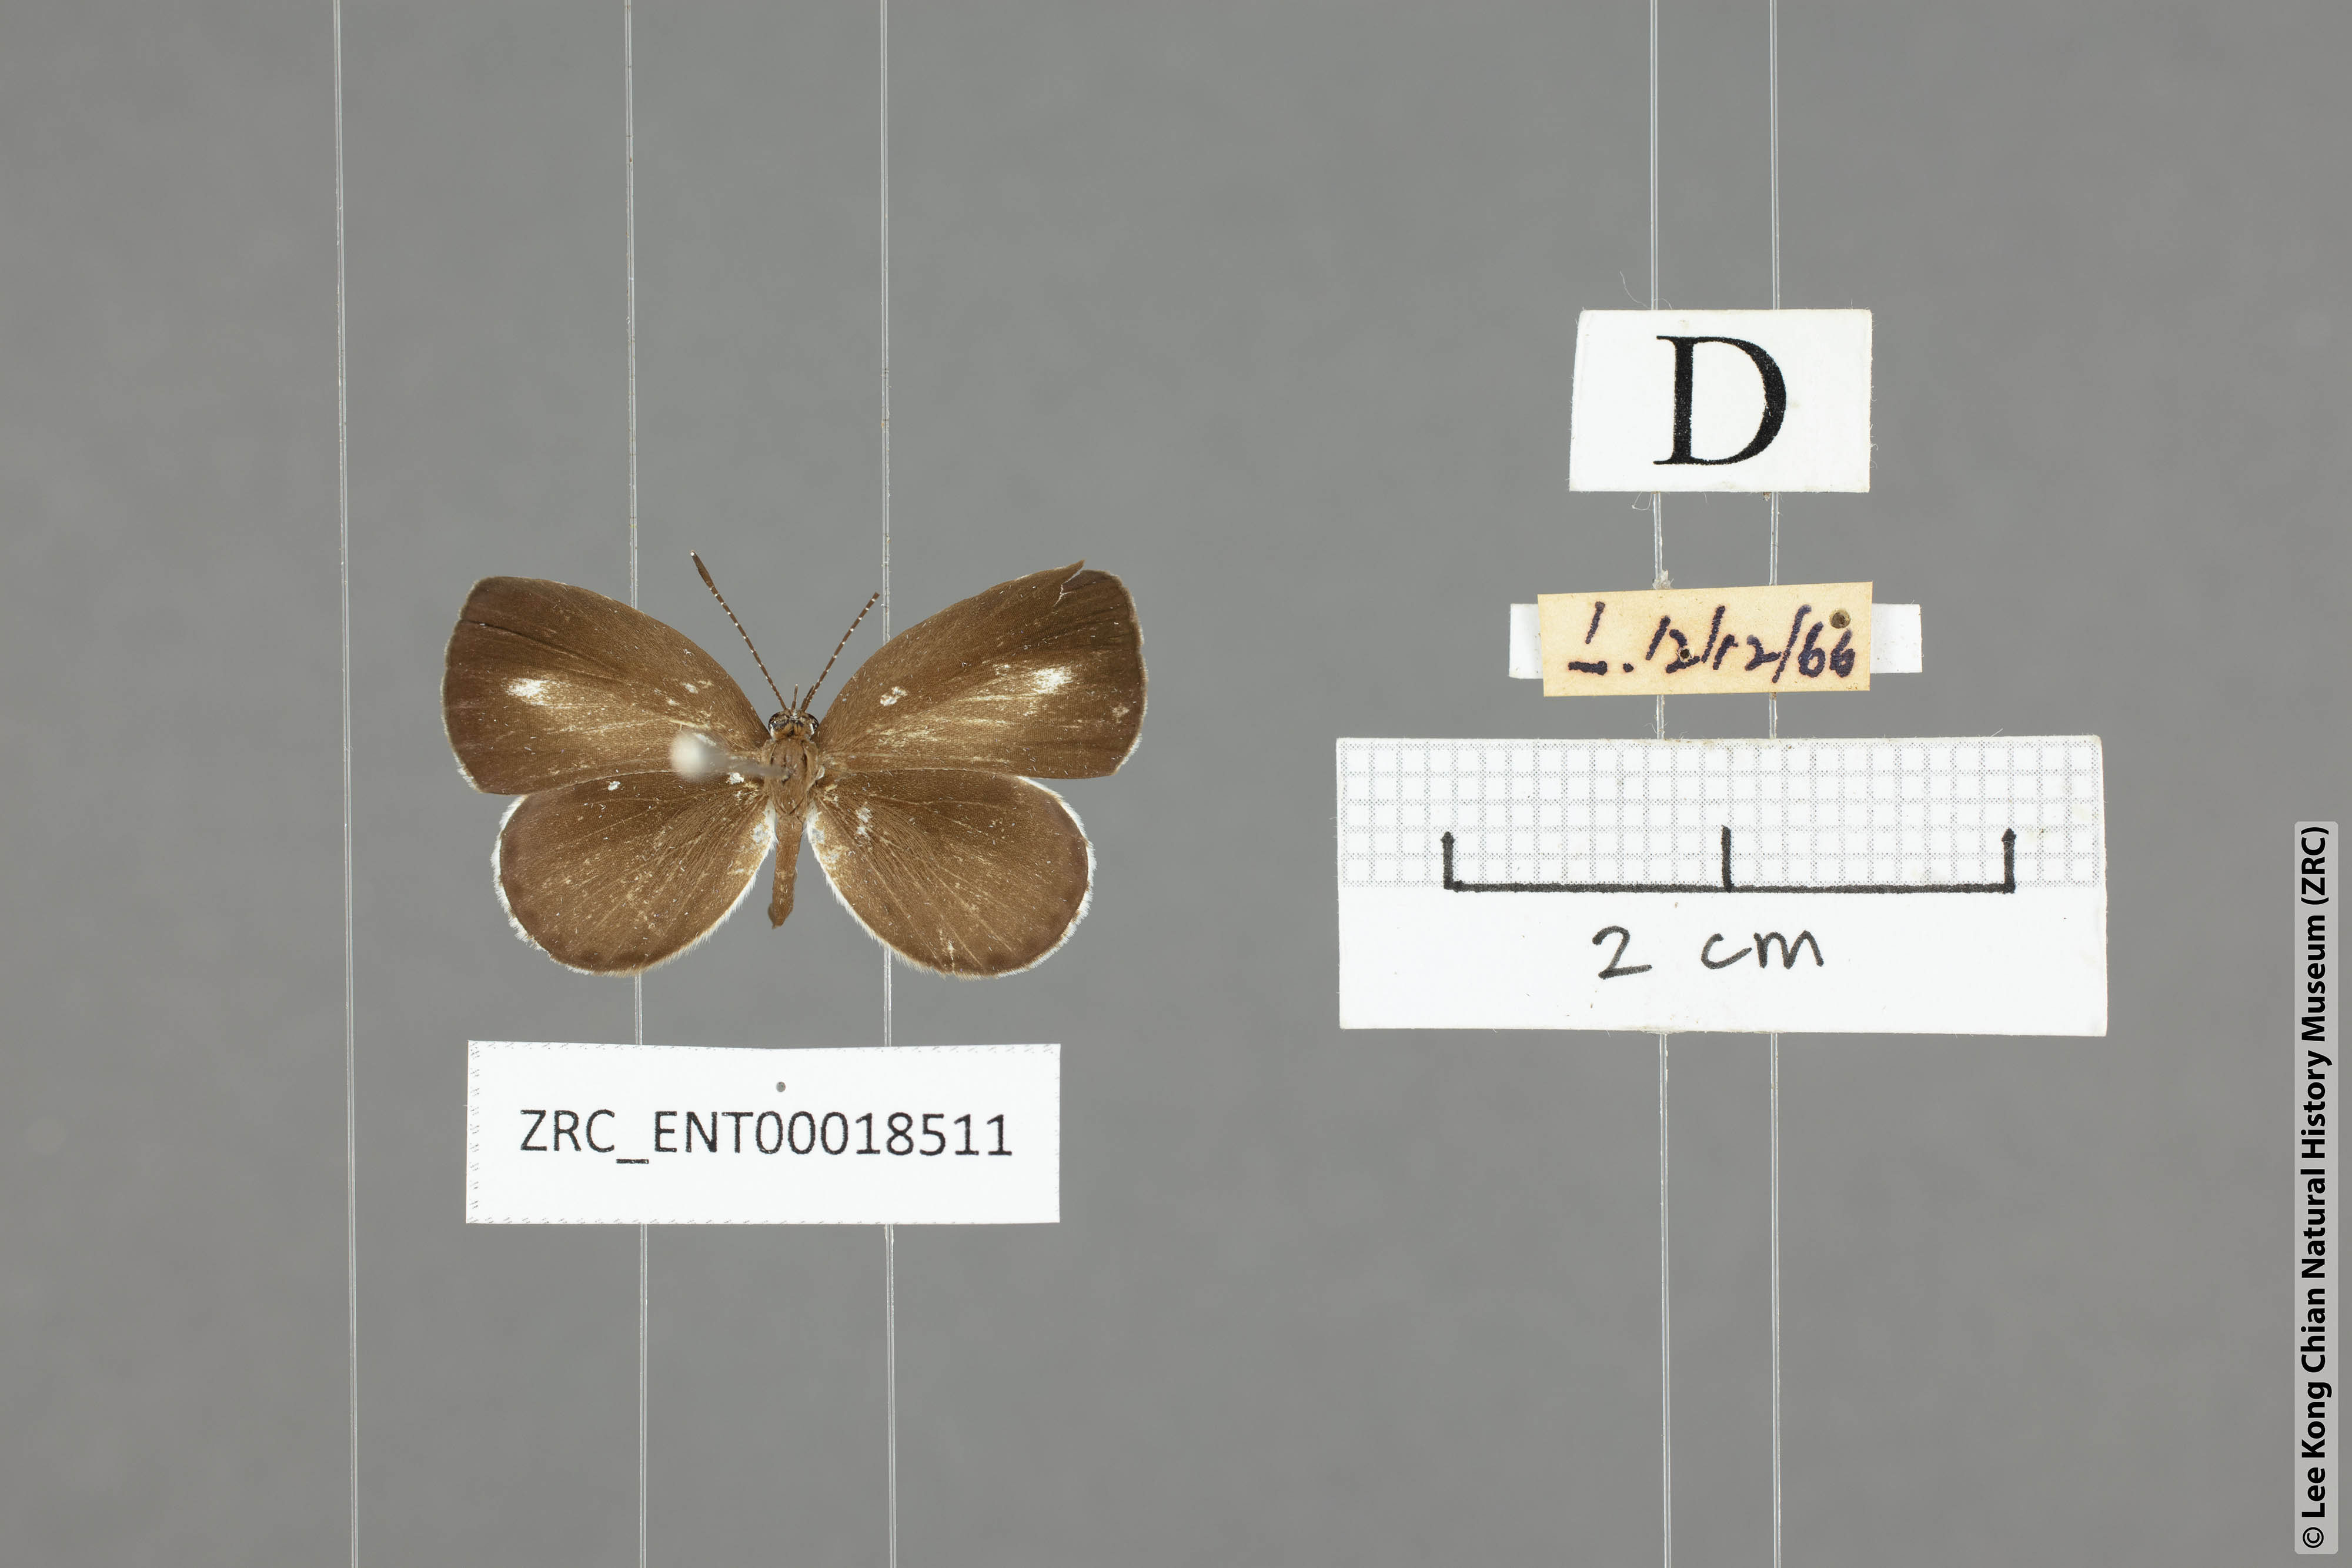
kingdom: Animalia
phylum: Arthropoda
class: Insecta
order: Lepidoptera
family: Lycaenidae
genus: Neopithecops
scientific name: Neopithecops zalmora
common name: Quaker
